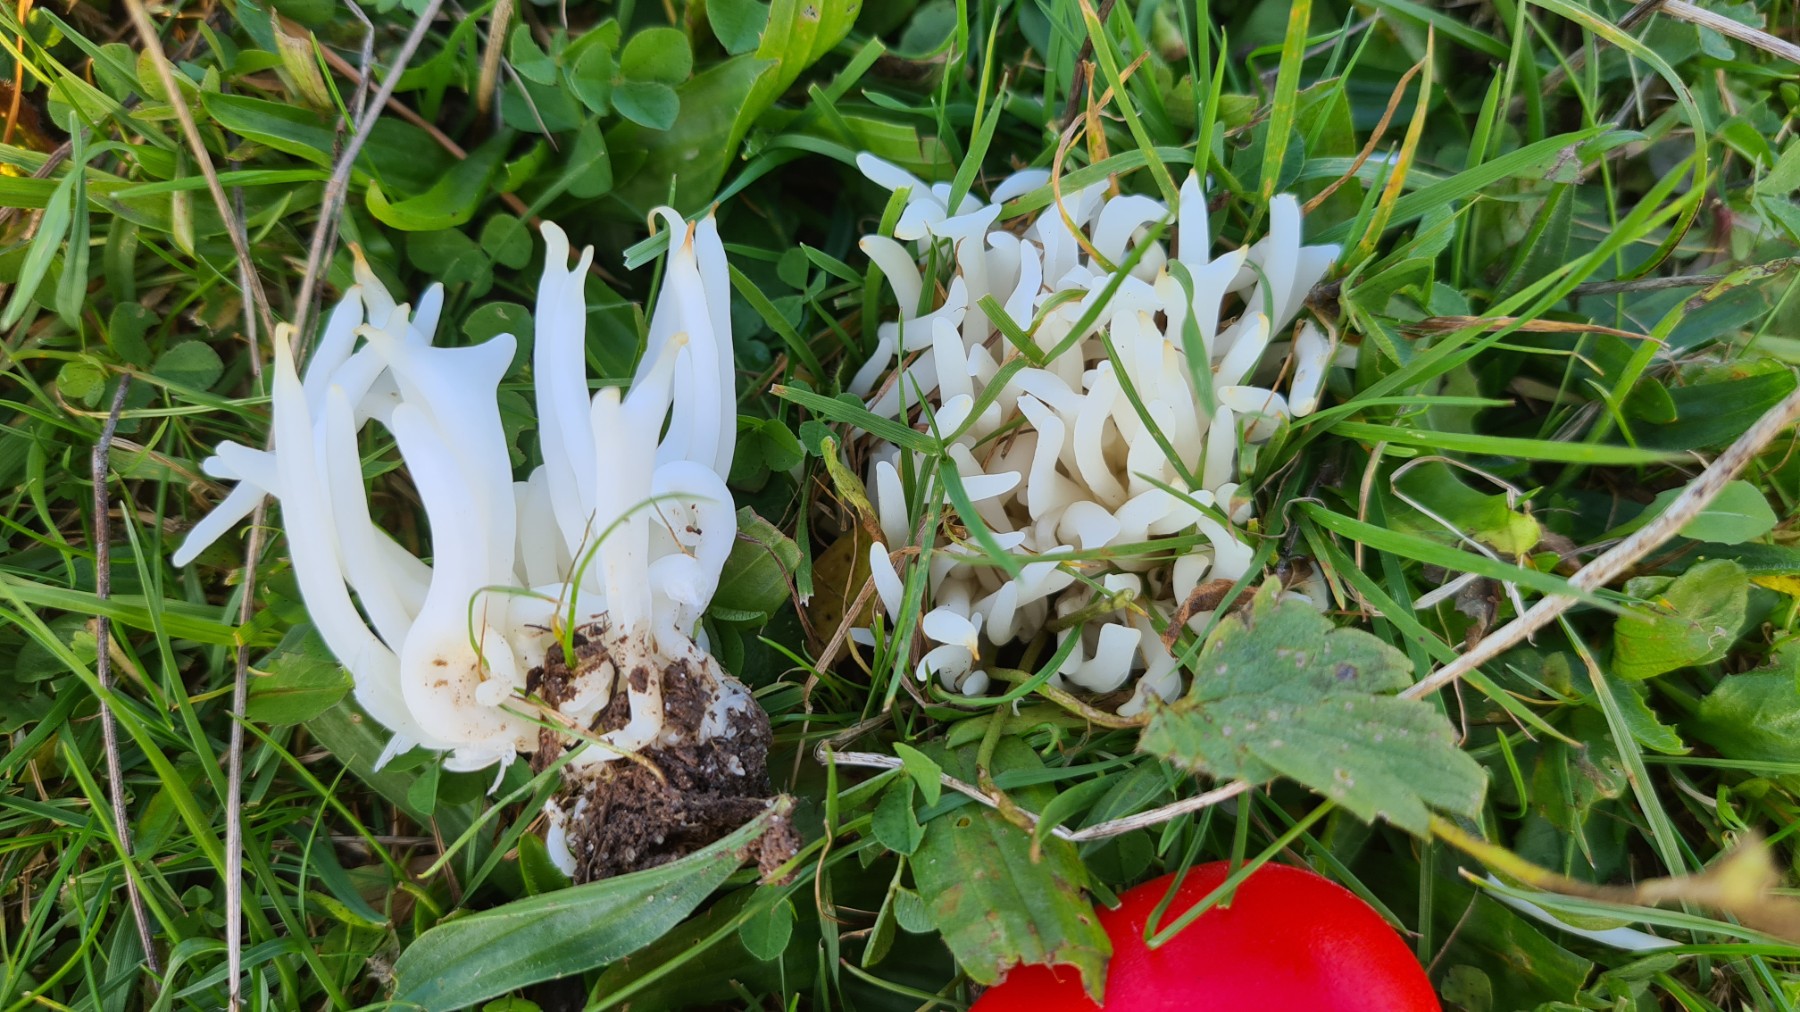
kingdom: Fungi
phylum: Basidiomycota
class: Agaricomycetes
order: Agaricales
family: Clavariaceae
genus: Clavaria
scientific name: Clavaria
